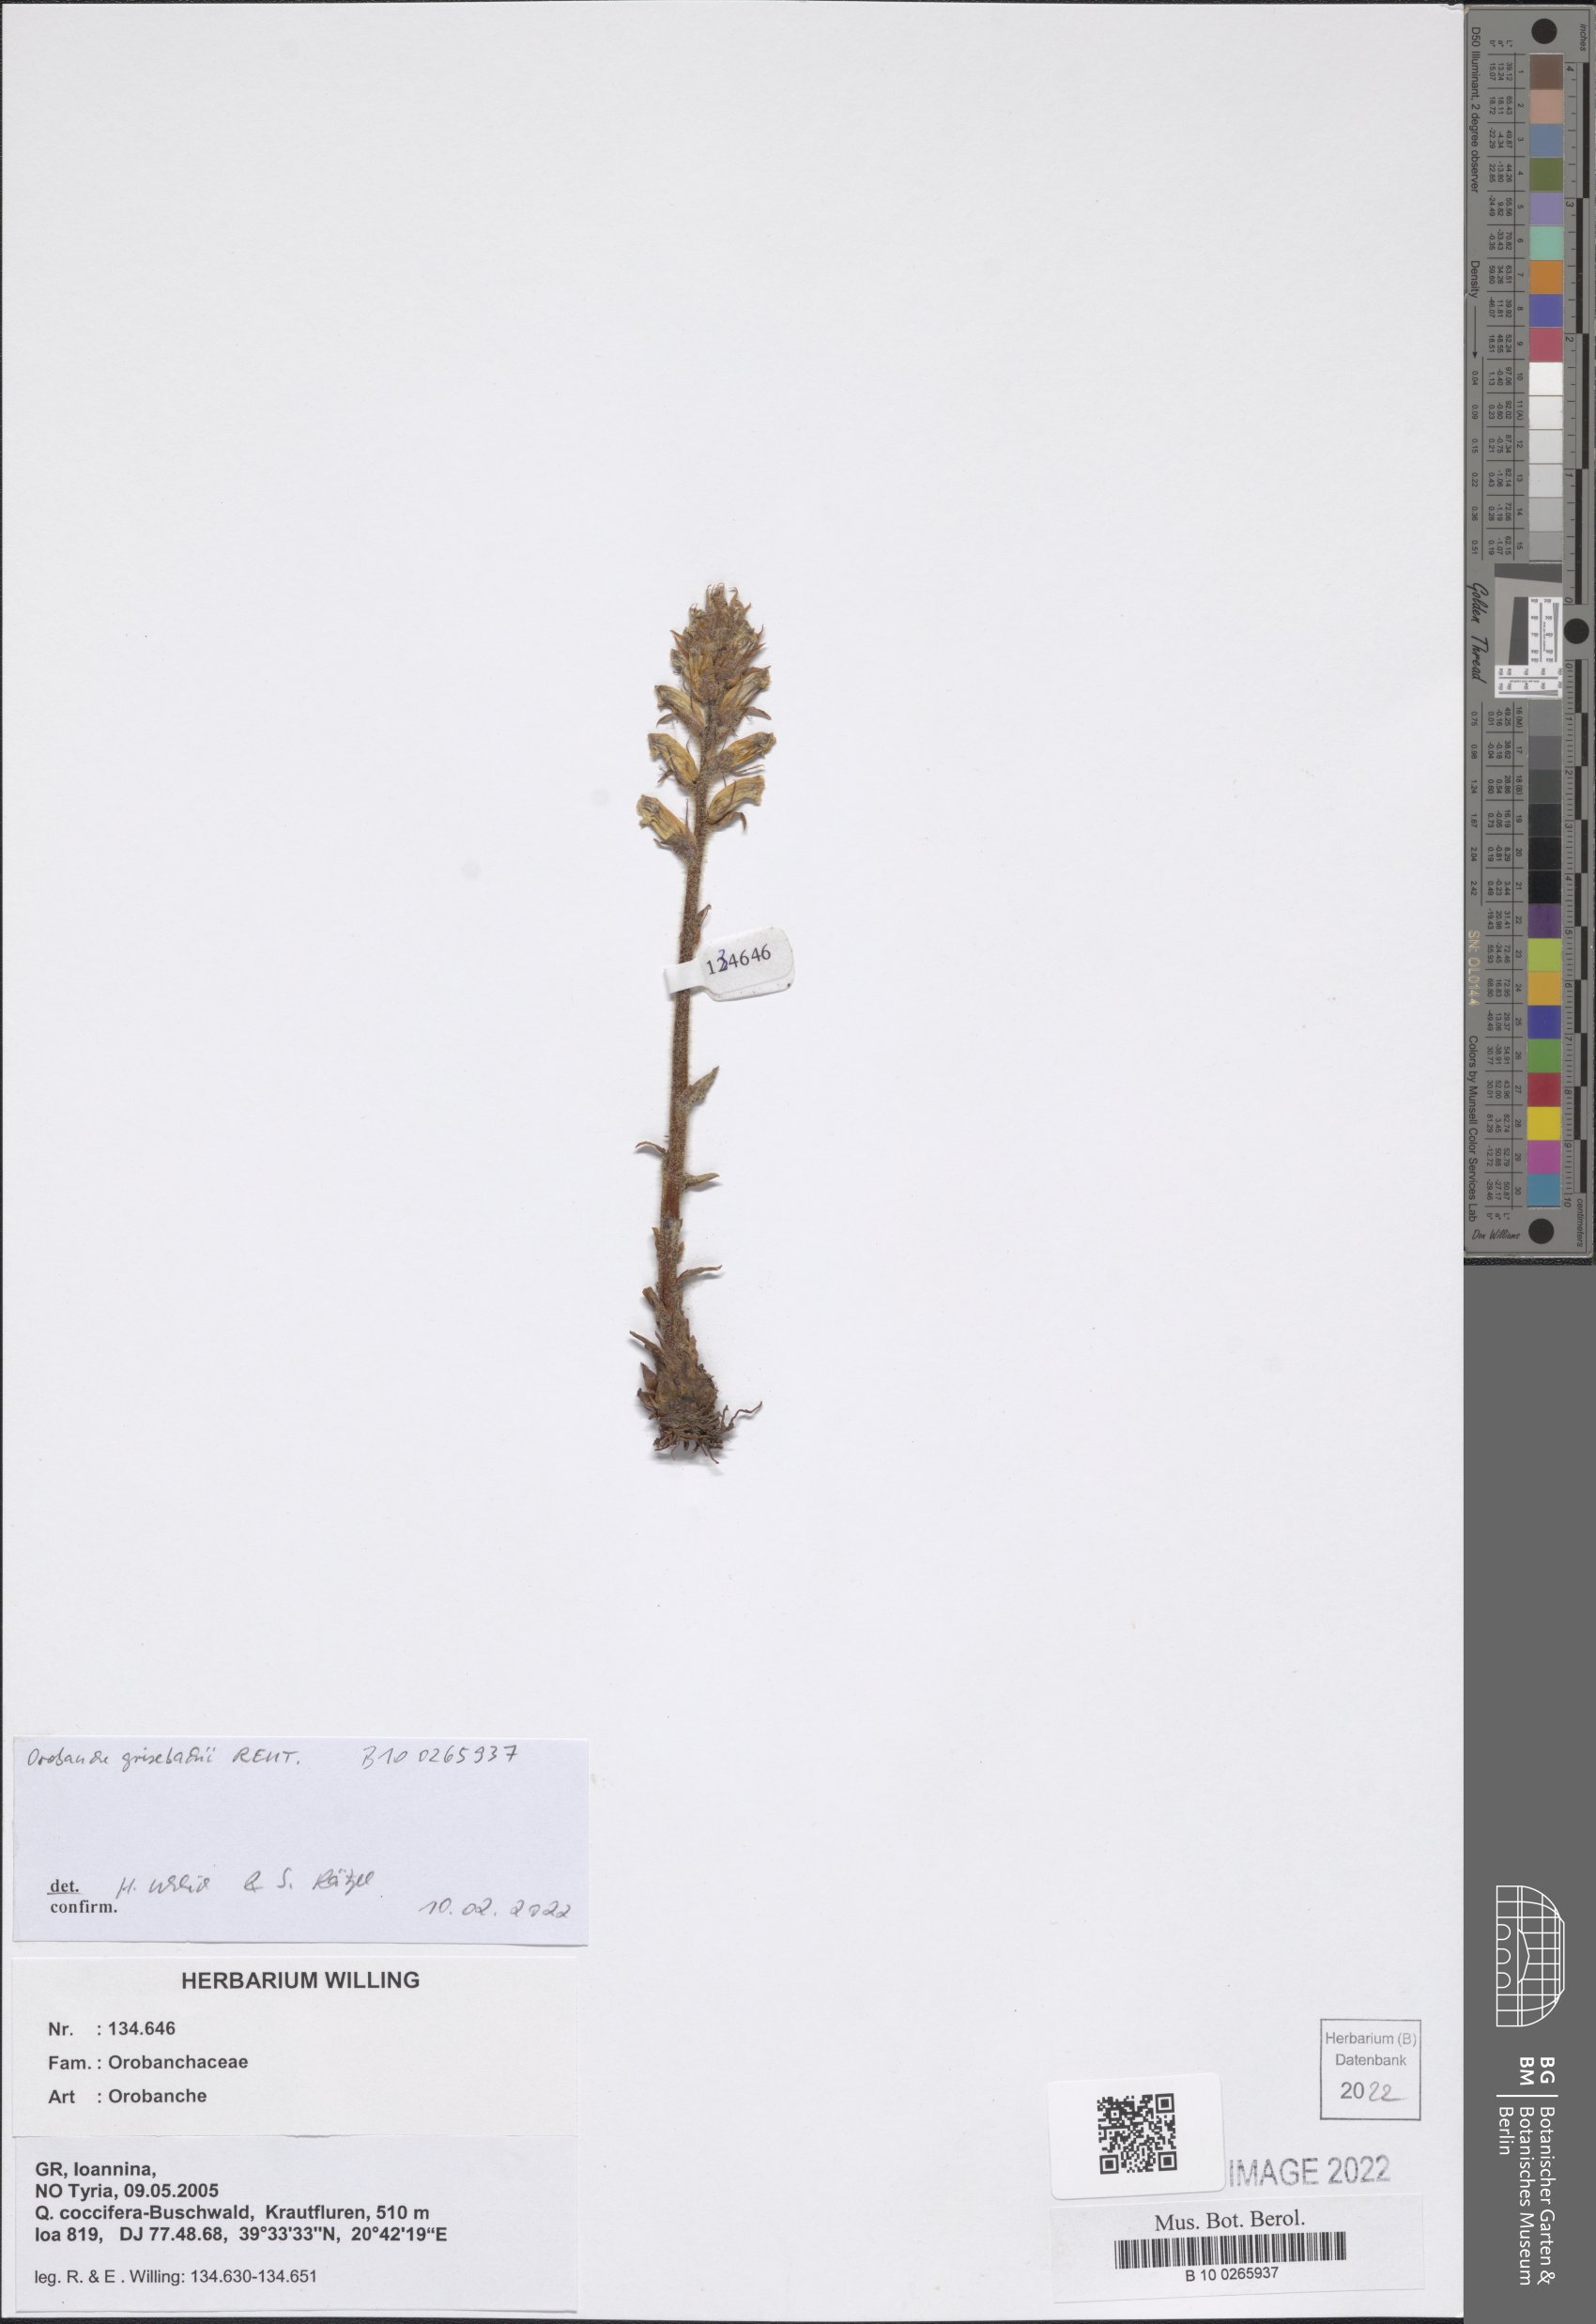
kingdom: Plantae
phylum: Tracheophyta
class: Magnoliopsida
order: Lamiales
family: Orobanchaceae
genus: Orobanche
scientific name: Orobanche grisebachii
